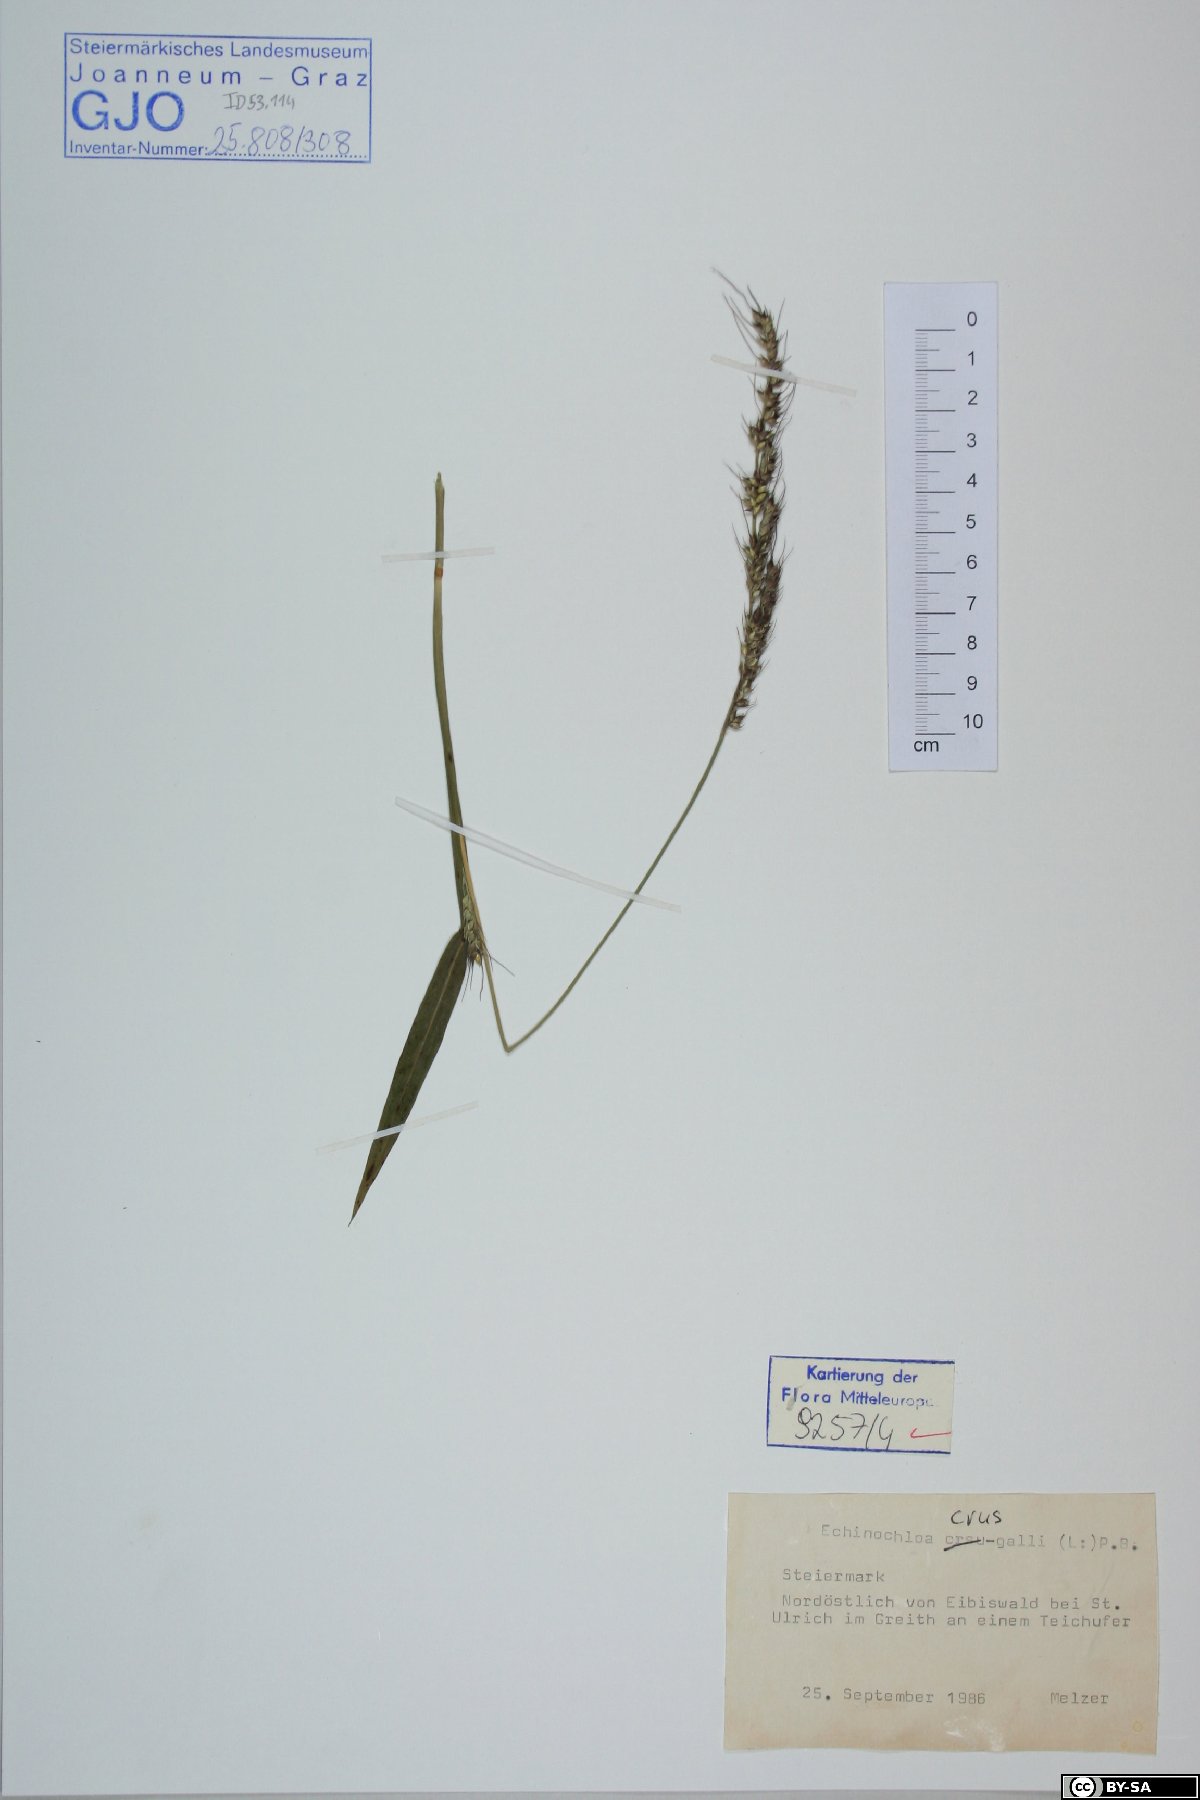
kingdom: Plantae
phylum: Tracheophyta
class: Liliopsida
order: Poales
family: Poaceae
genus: Echinochloa
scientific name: Echinochloa crus-galli
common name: Cockspur
